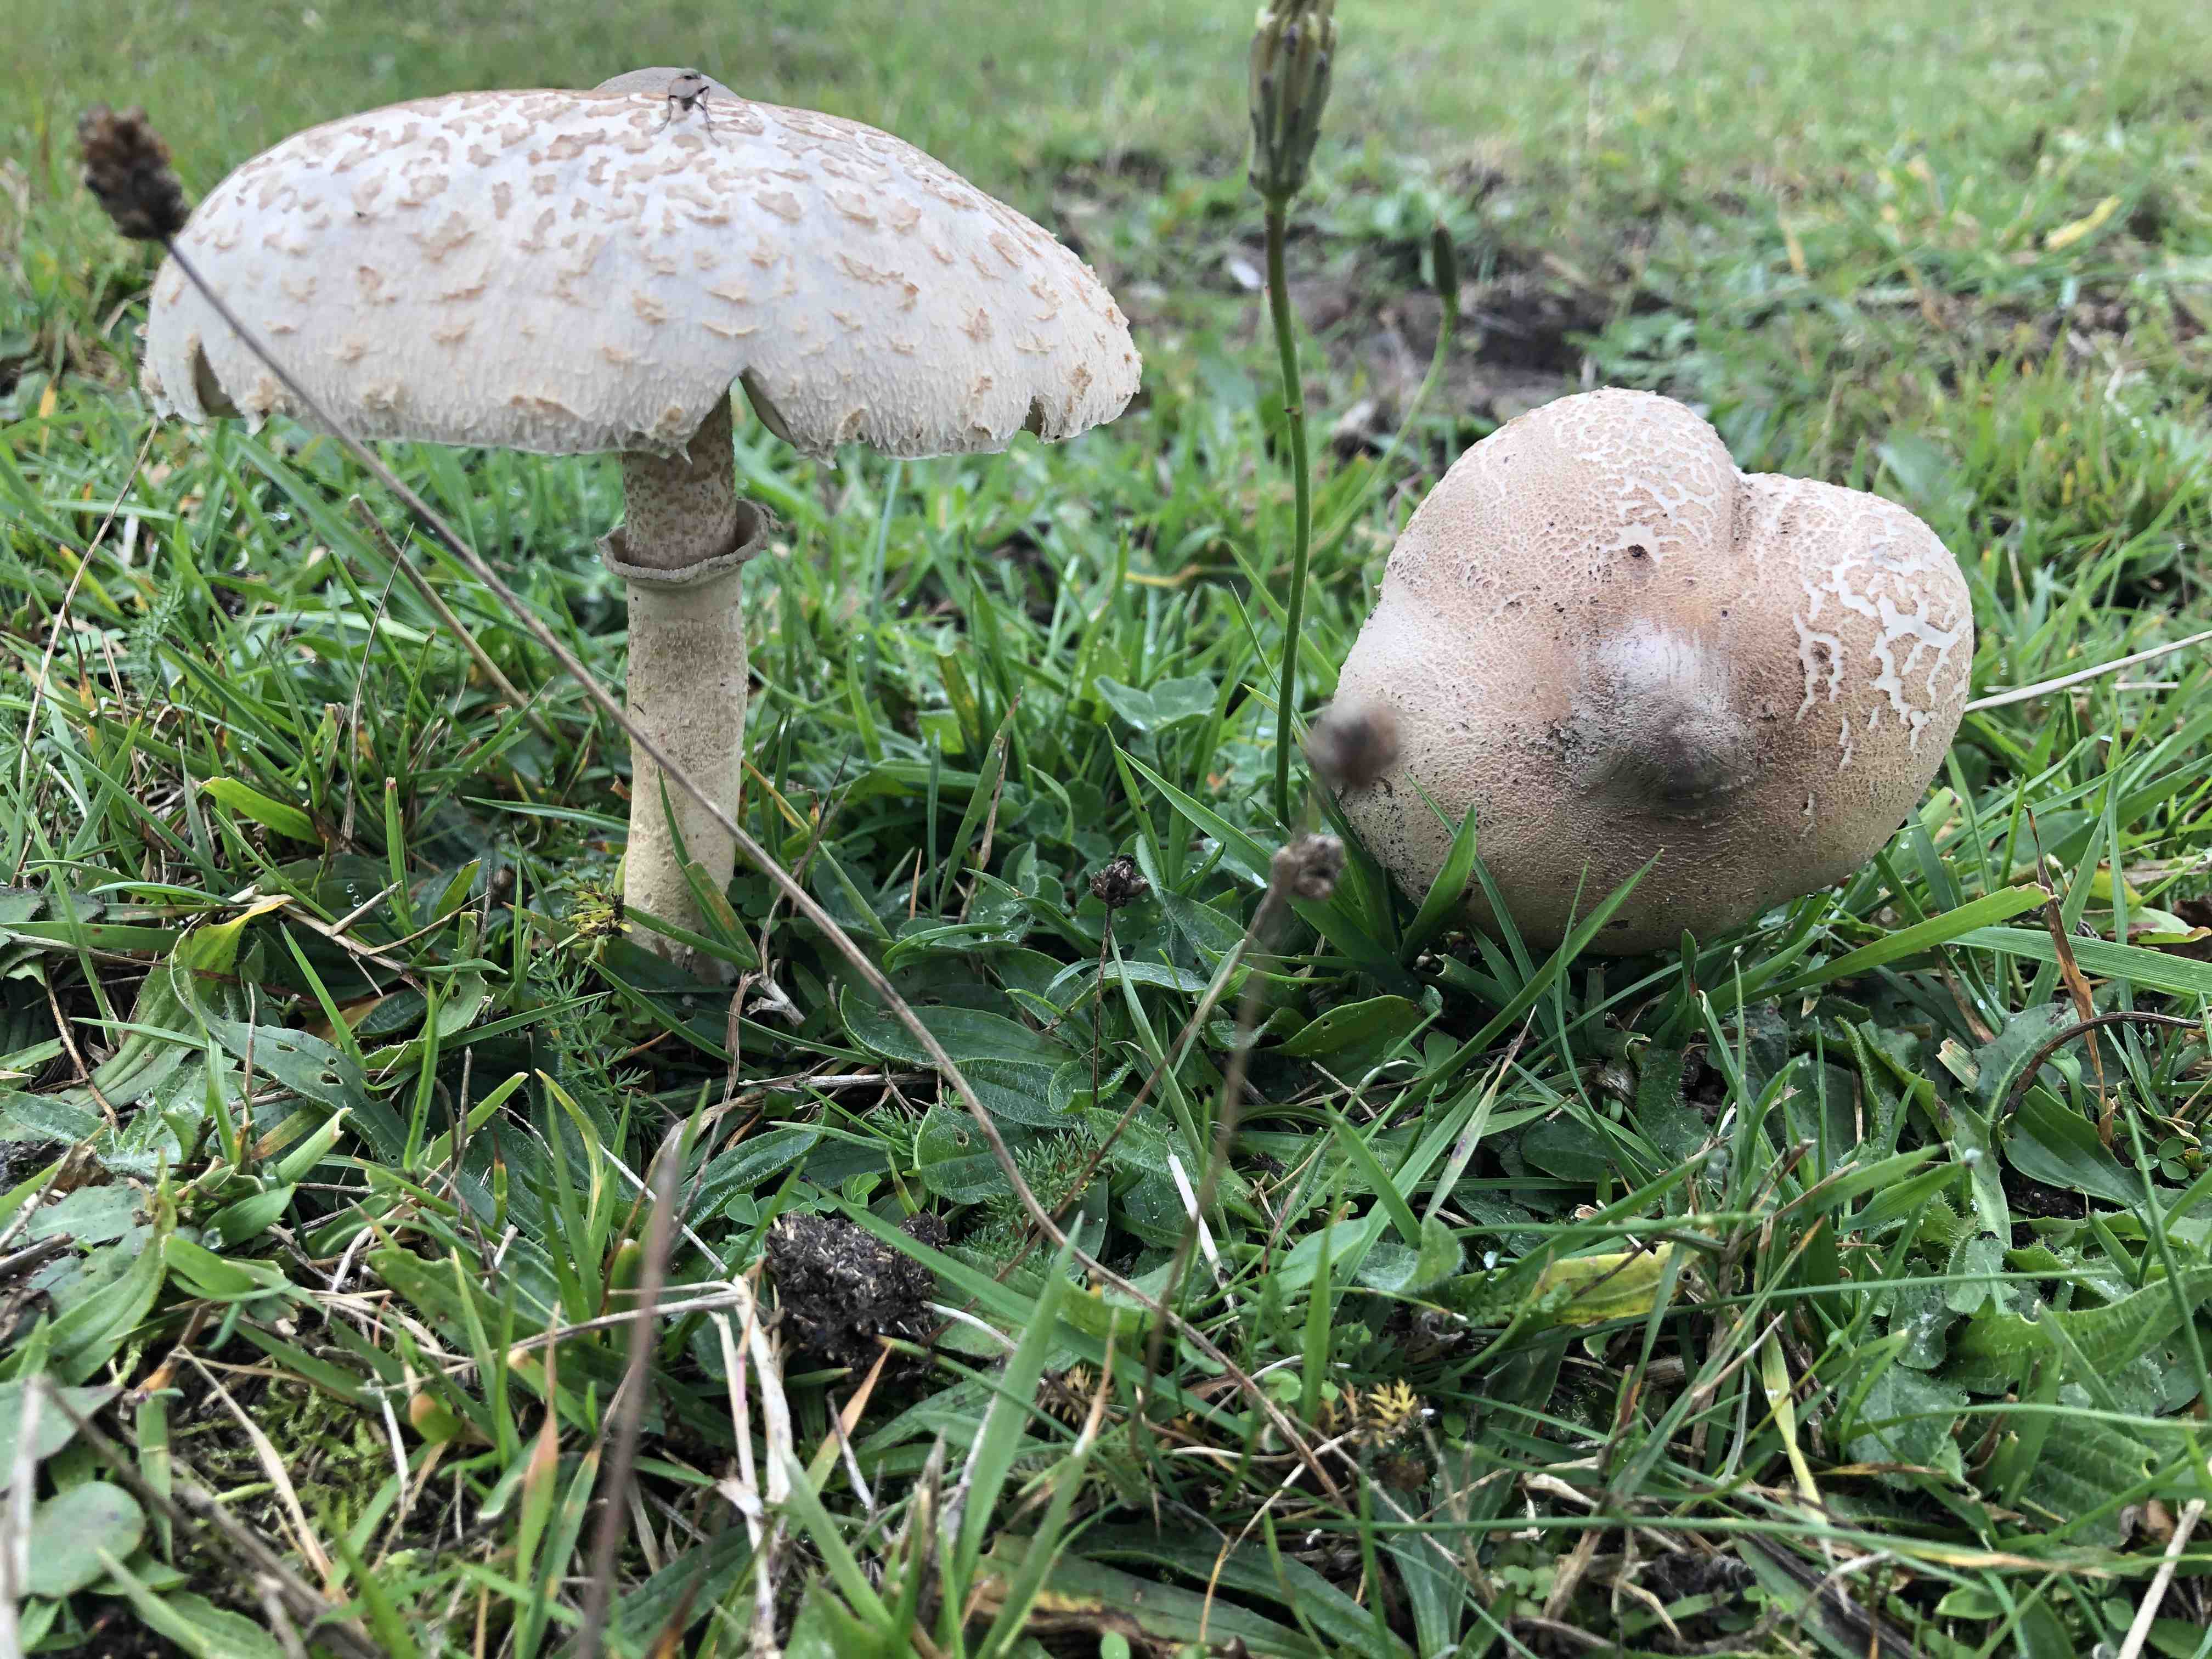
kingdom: Fungi
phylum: Basidiomycota
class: Agaricomycetes
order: Agaricales
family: Agaricaceae
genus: Macrolepiota
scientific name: Macrolepiota mastoidea
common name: puklet kæmpeparasolhat
